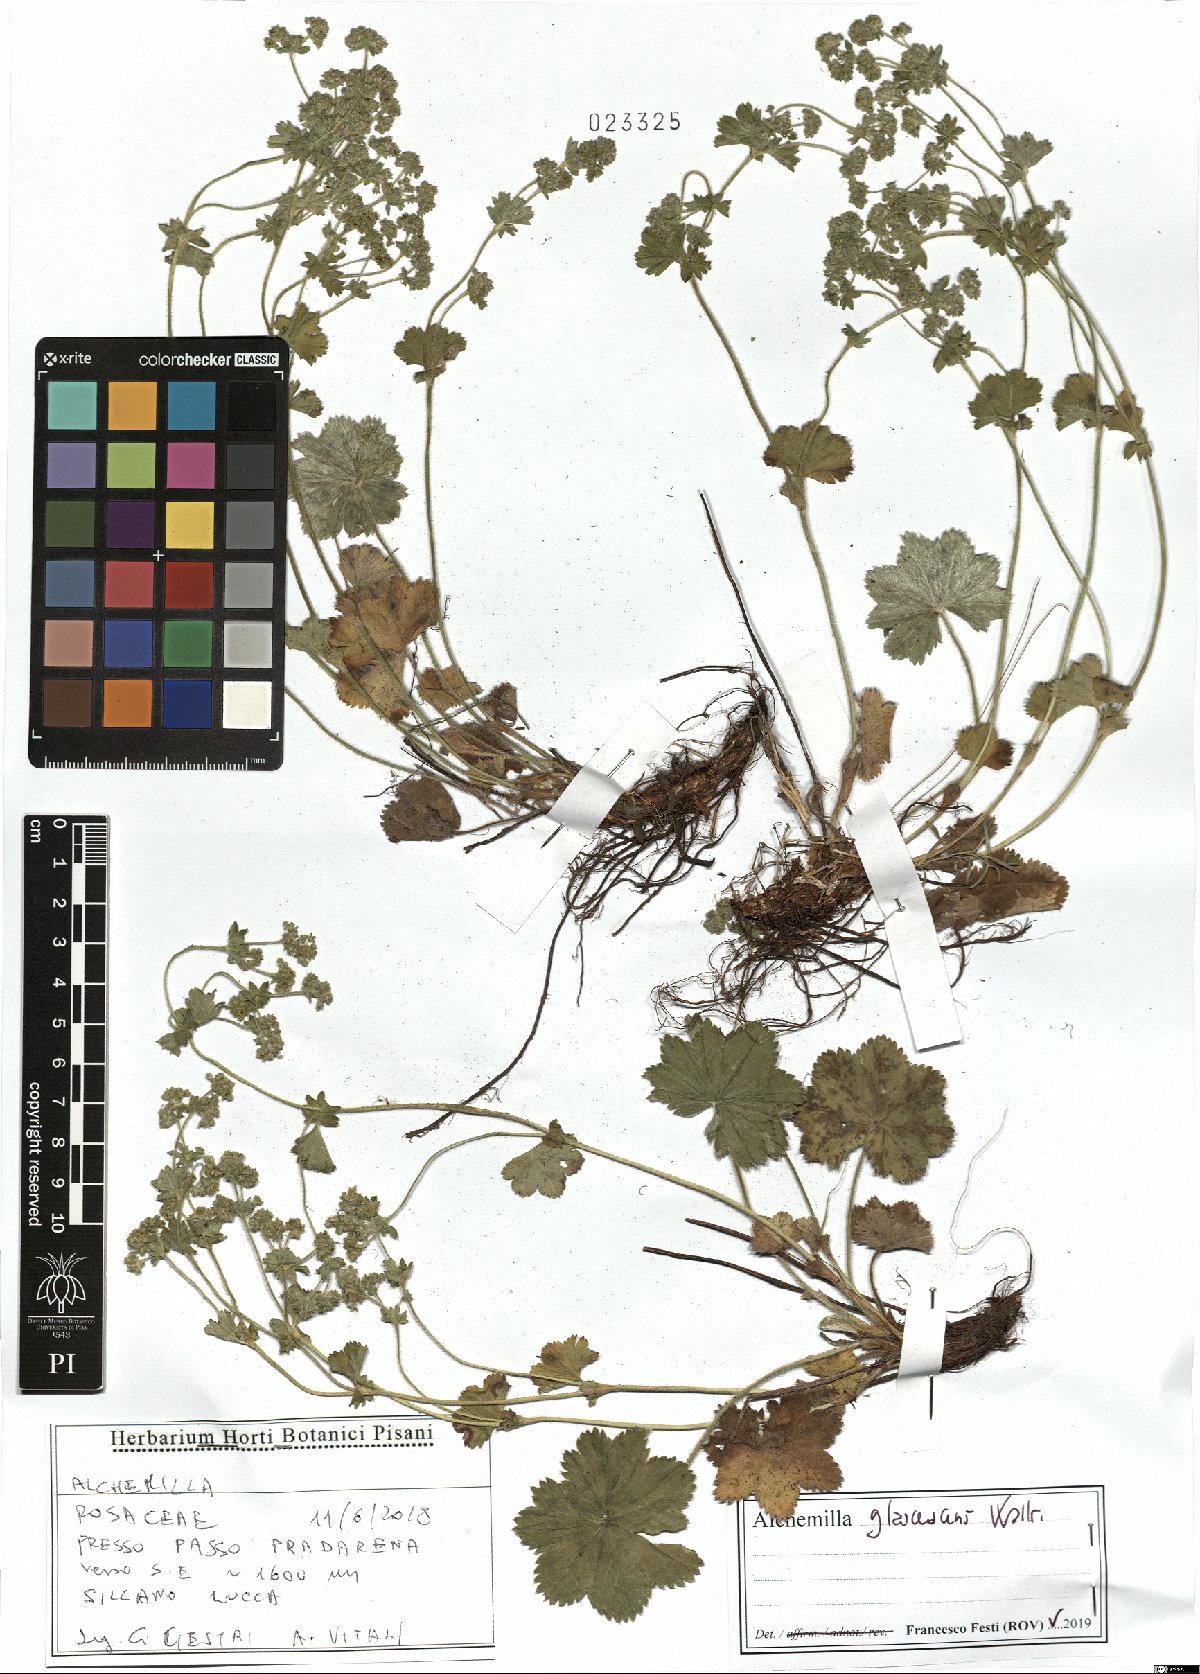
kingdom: Plantae
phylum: Tracheophyta
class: Magnoliopsida
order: Rosales
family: Rosaceae
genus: Alchemilla
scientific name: Alchemilla glaucescens
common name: Silky lady's mantle
